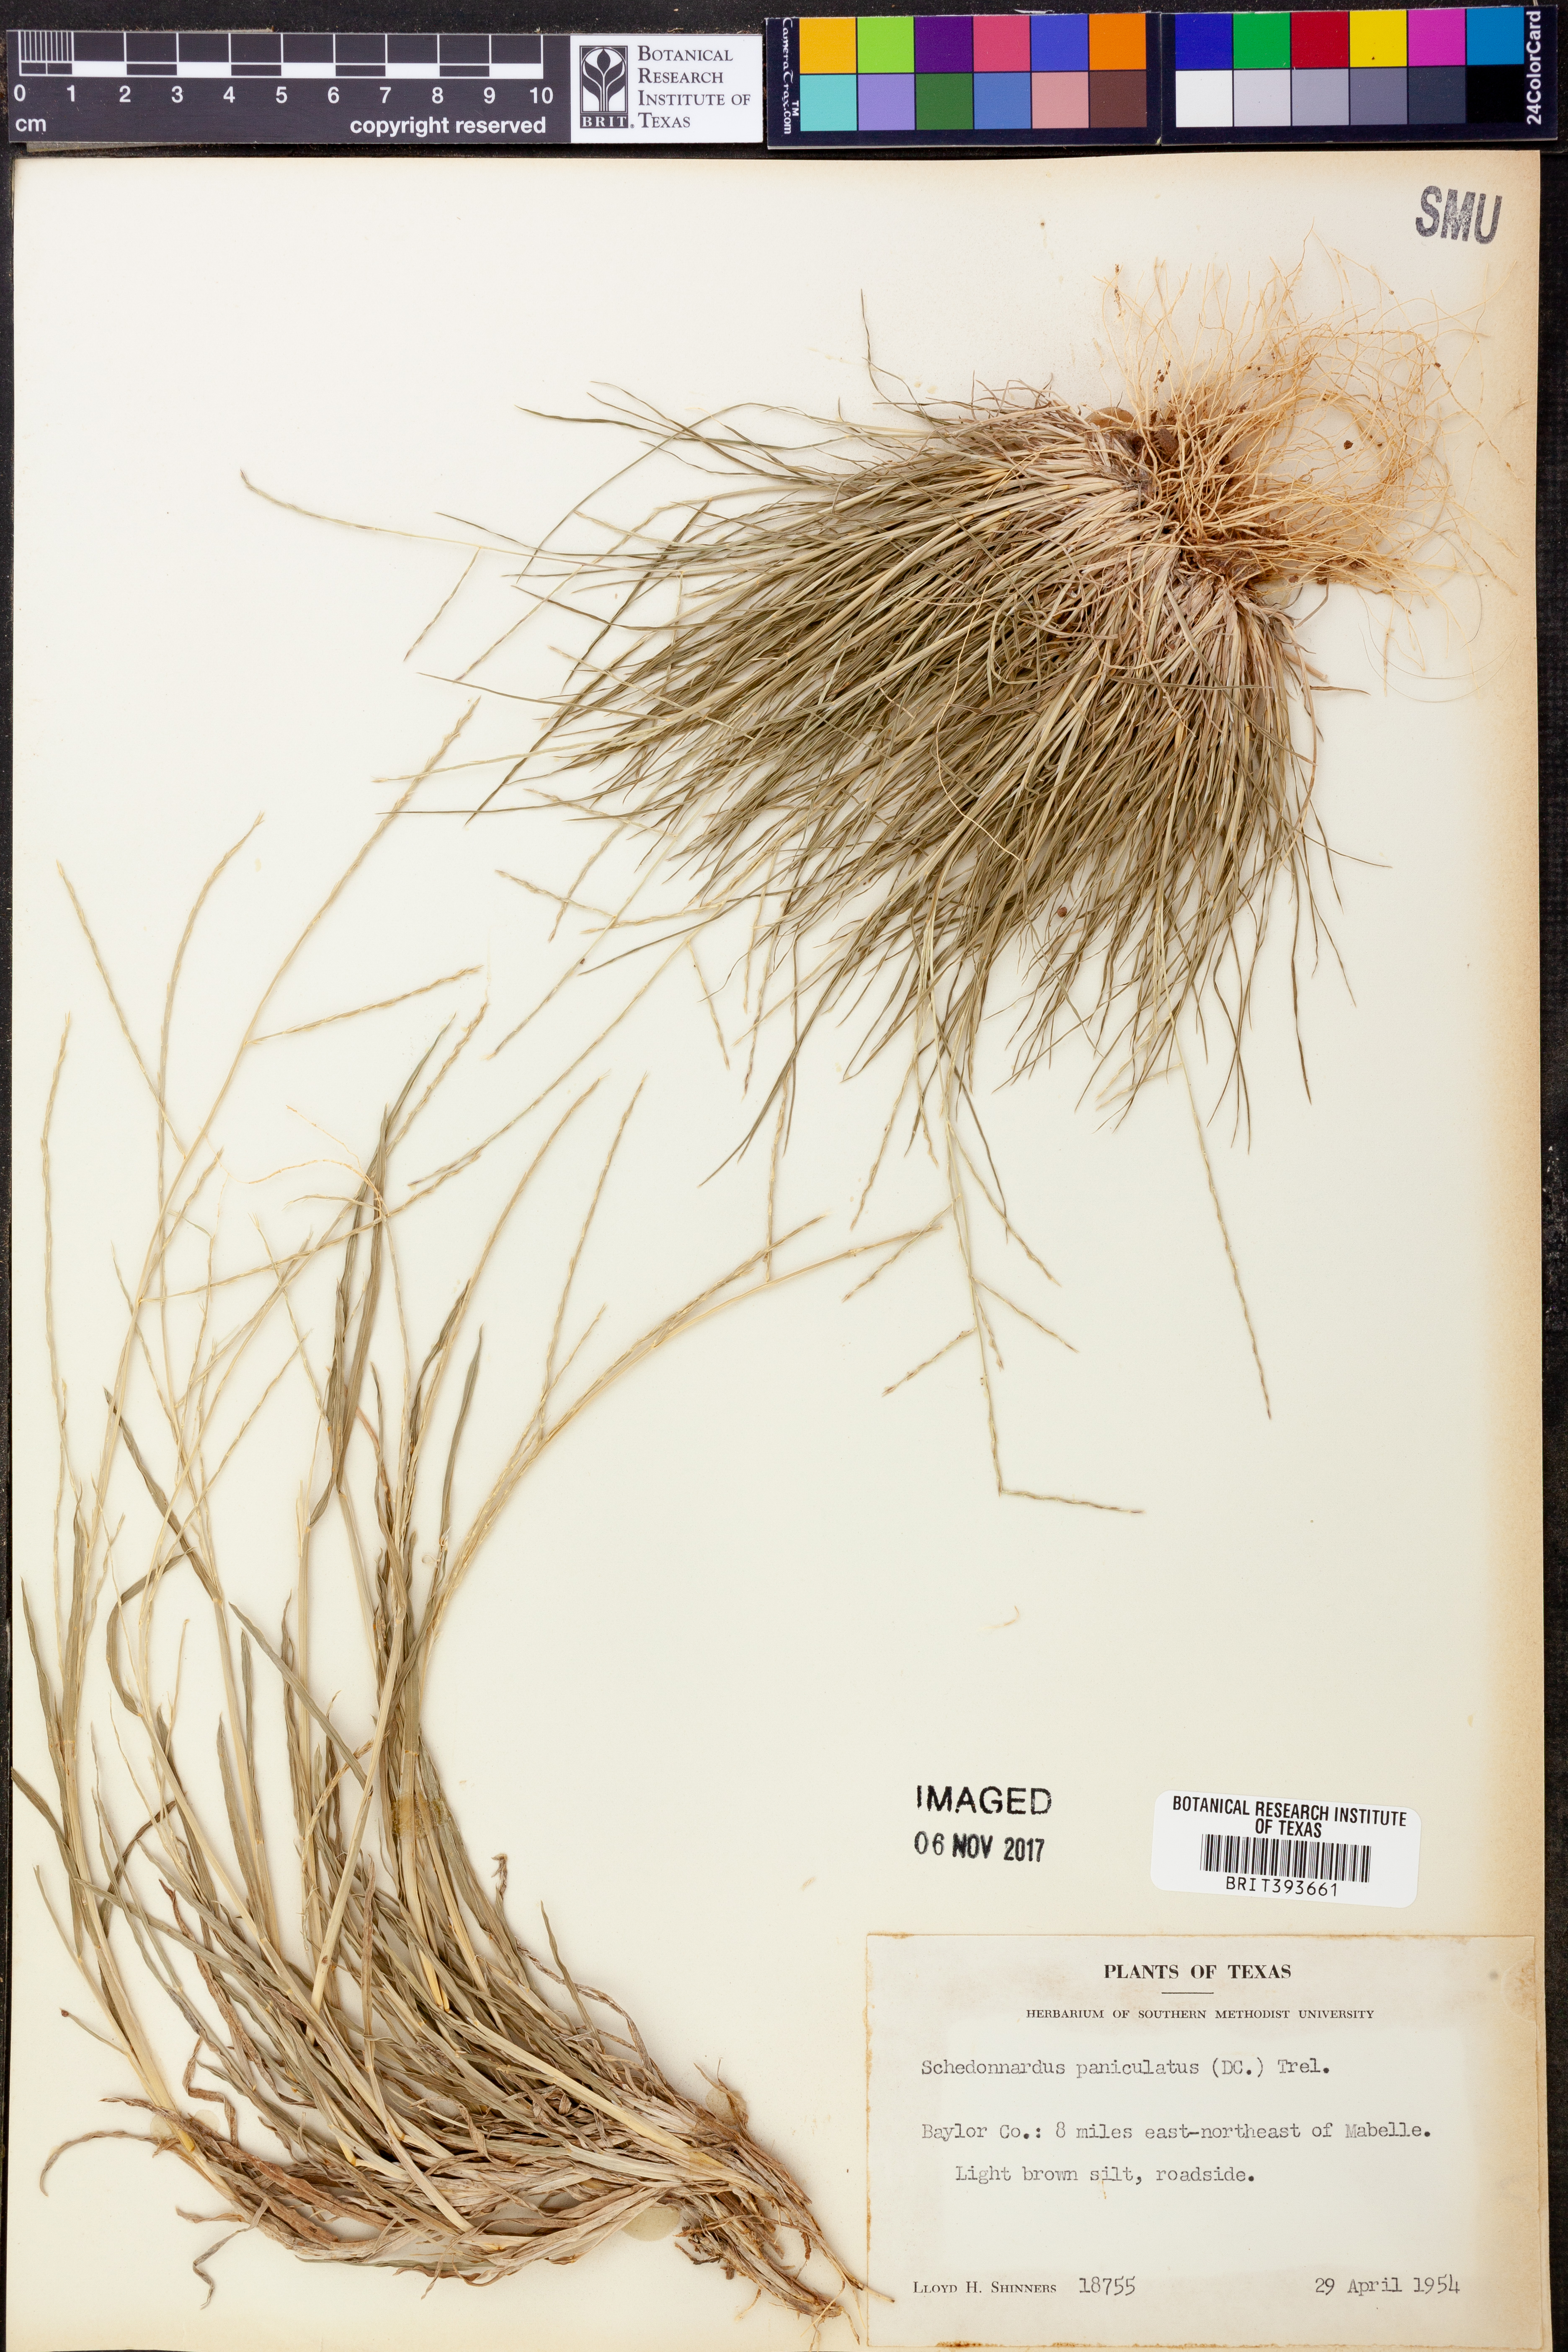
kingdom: Plantae
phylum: Tracheophyta
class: Liliopsida
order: Poales
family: Poaceae
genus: Muhlenbergia
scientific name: Muhlenbergia paniculata
